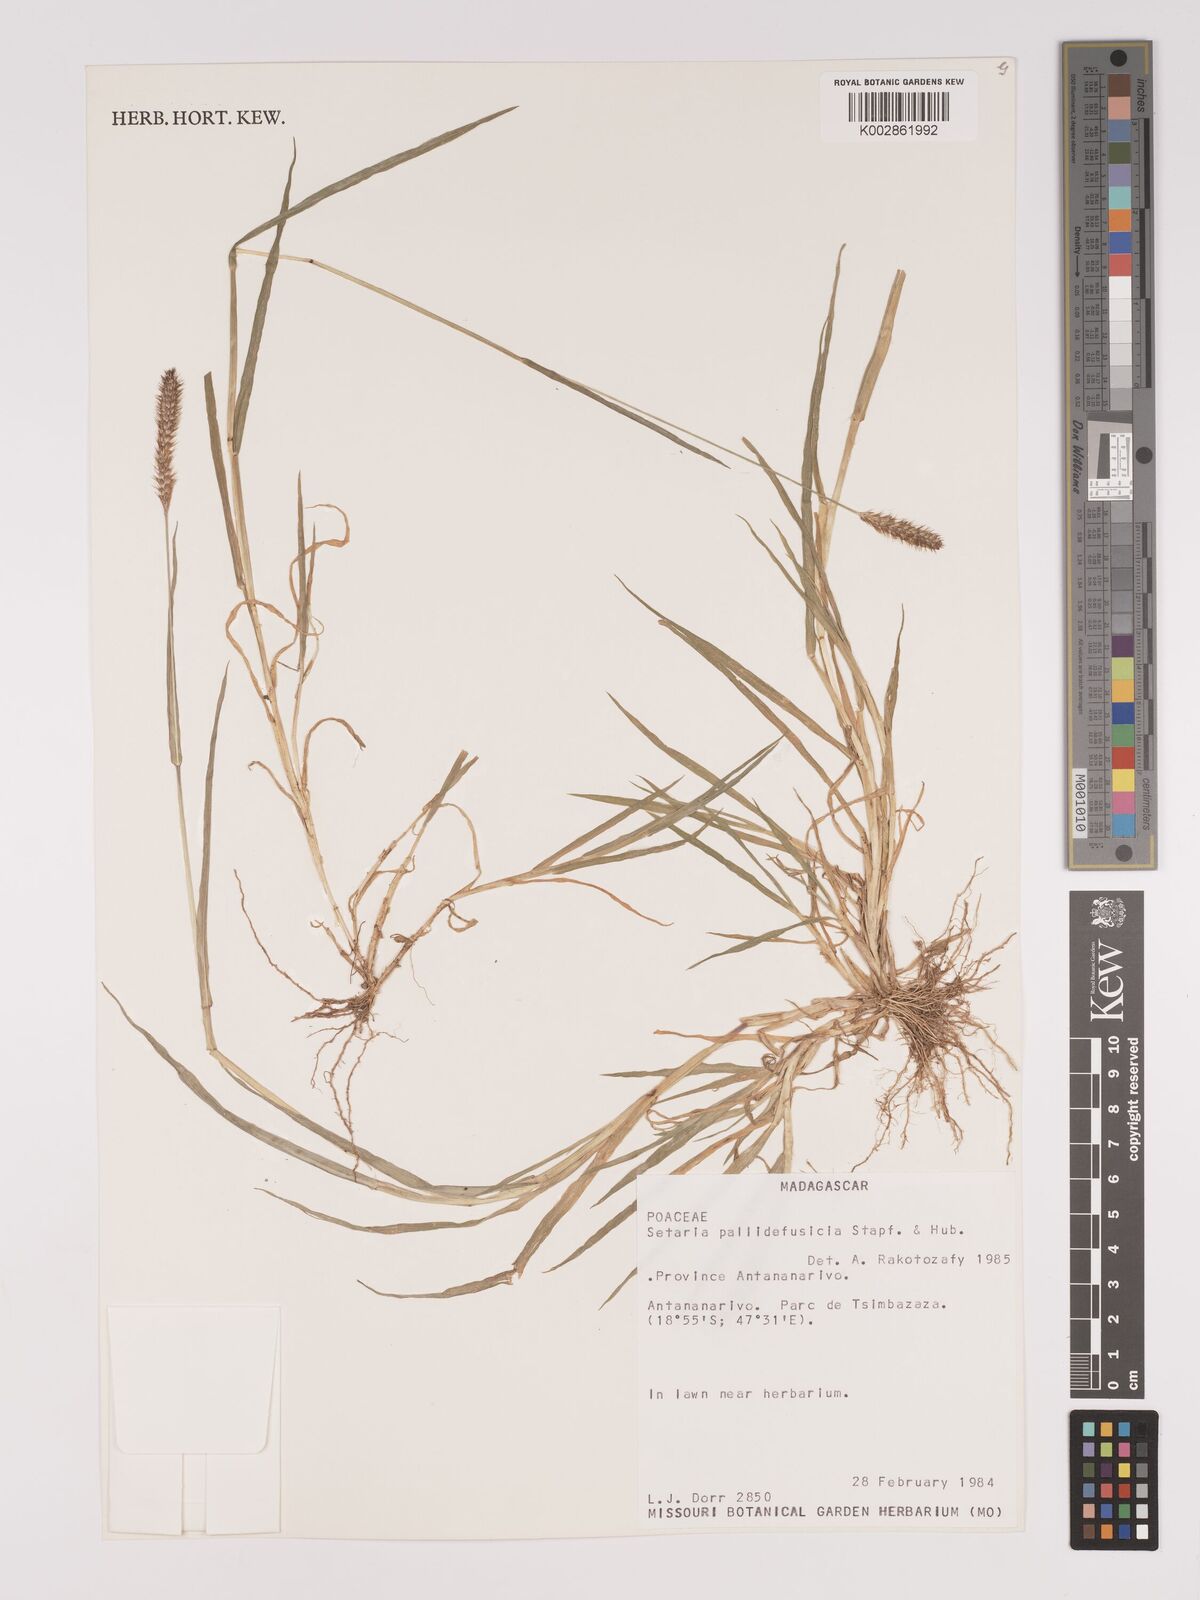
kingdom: Plantae
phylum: Tracheophyta
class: Liliopsida
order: Poales
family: Poaceae
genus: Setaria
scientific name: Setaria pumila
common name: Yellow bristle-grass
